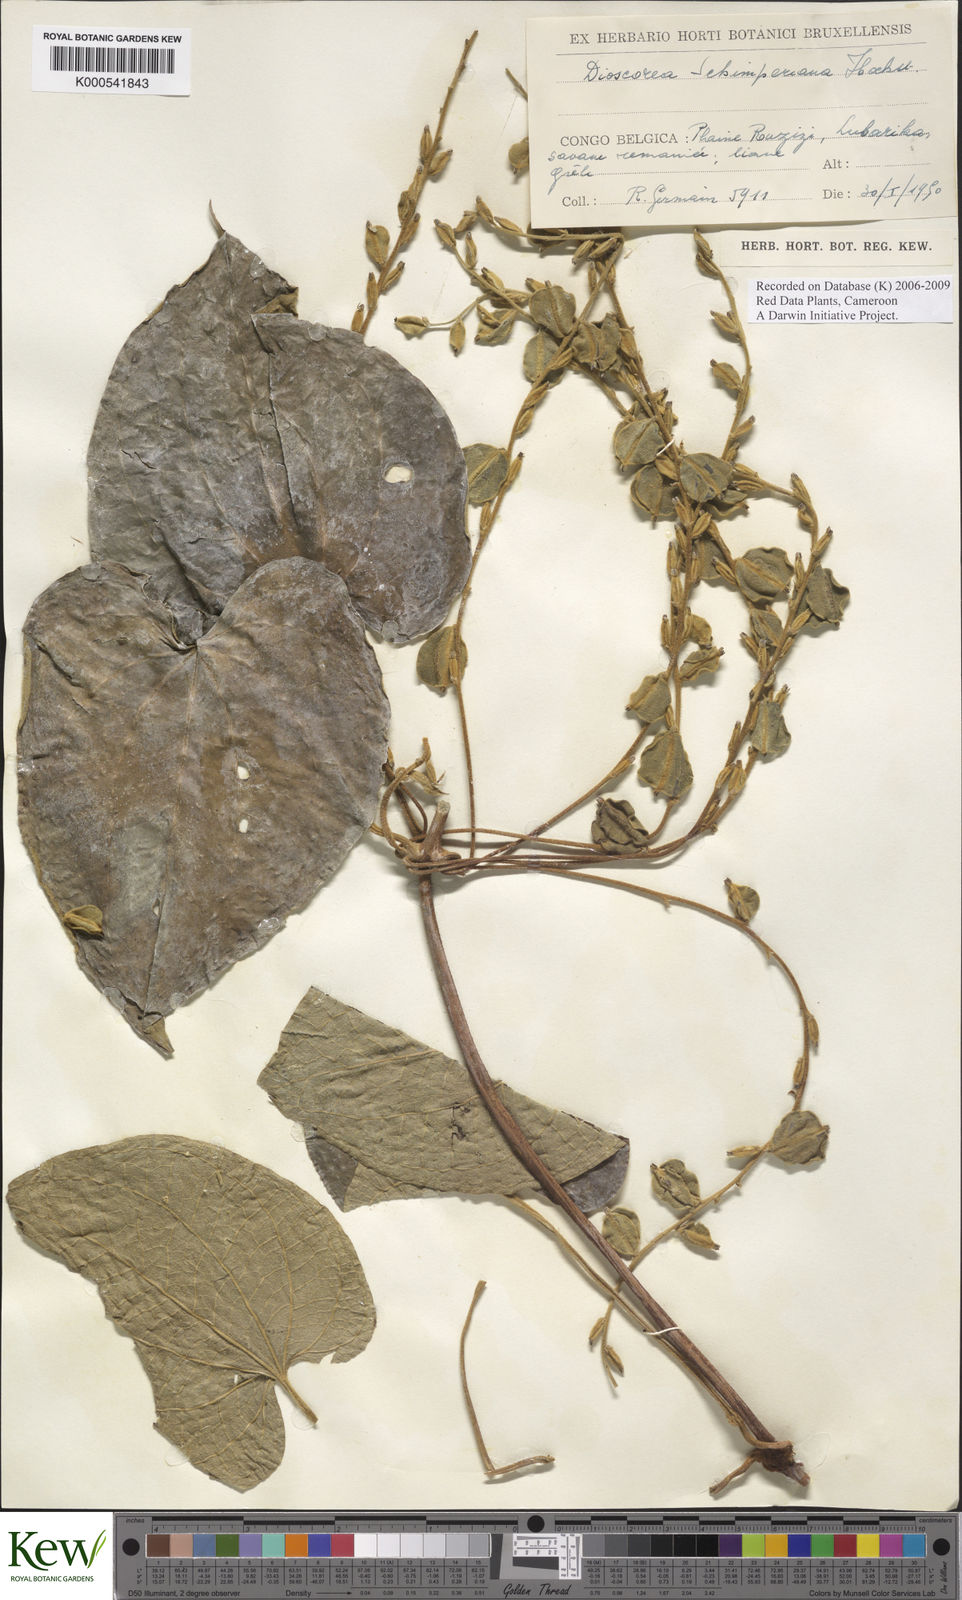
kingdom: Plantae
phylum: Tracheophyta
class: Liliopsida
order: Dioscoreales
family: Dioscoreaceae
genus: Dioscorea
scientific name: Dioscorea semperflorens
